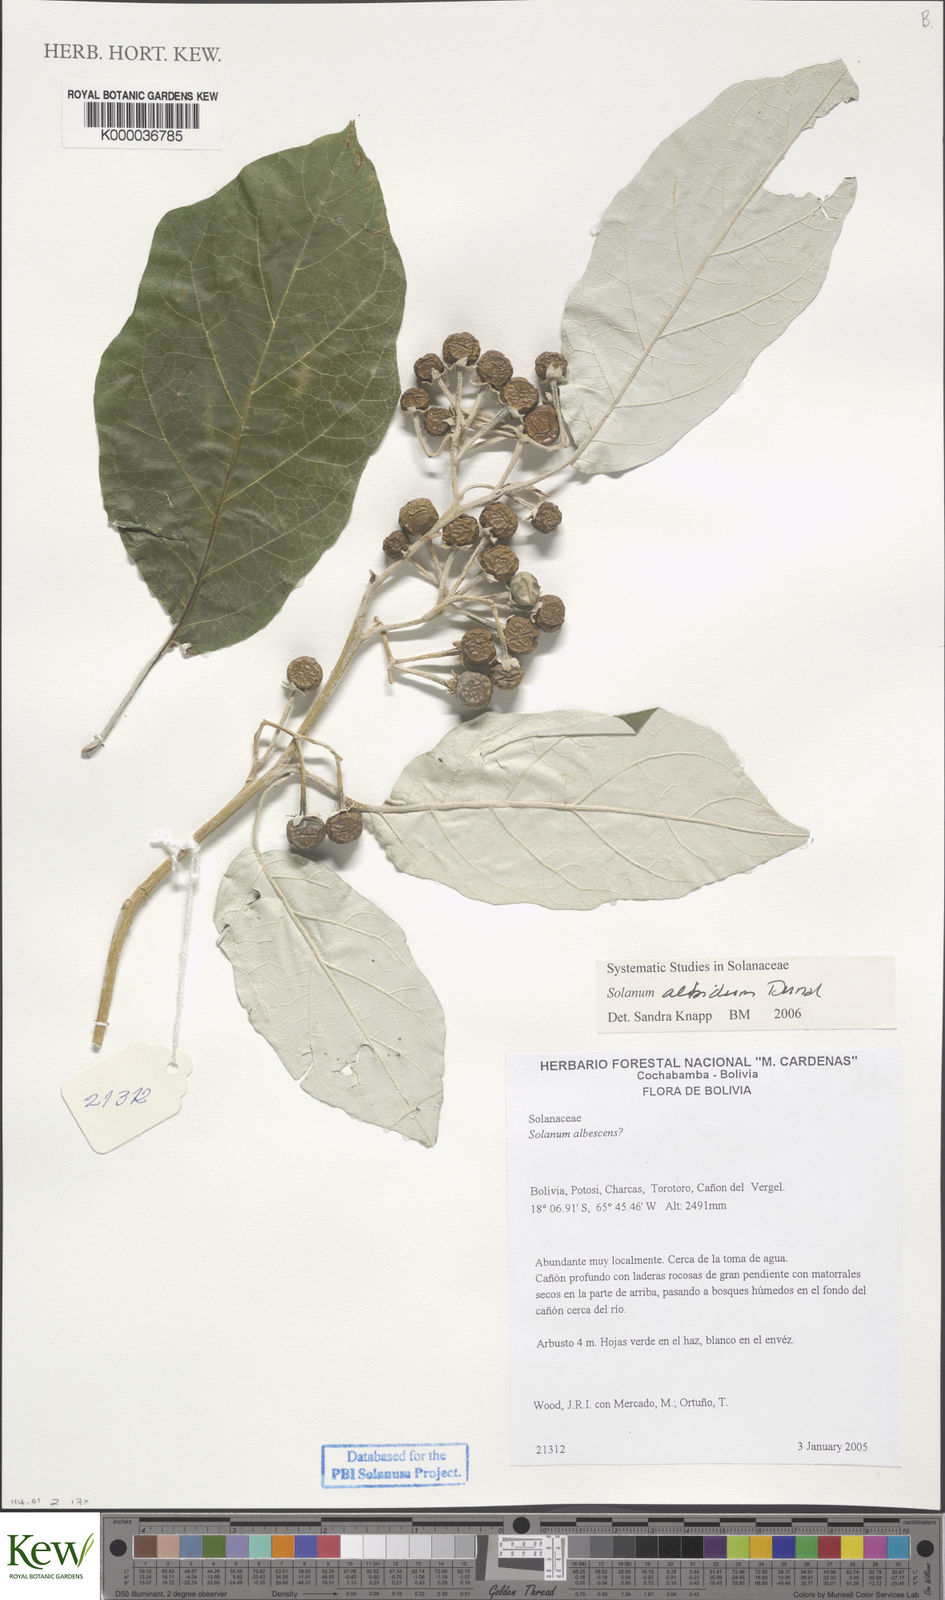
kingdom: Plantae
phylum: Tracheophyta
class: Magnoliopsida
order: Solanales
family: Solanaceae
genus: Solanum
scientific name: Solanum albidum
